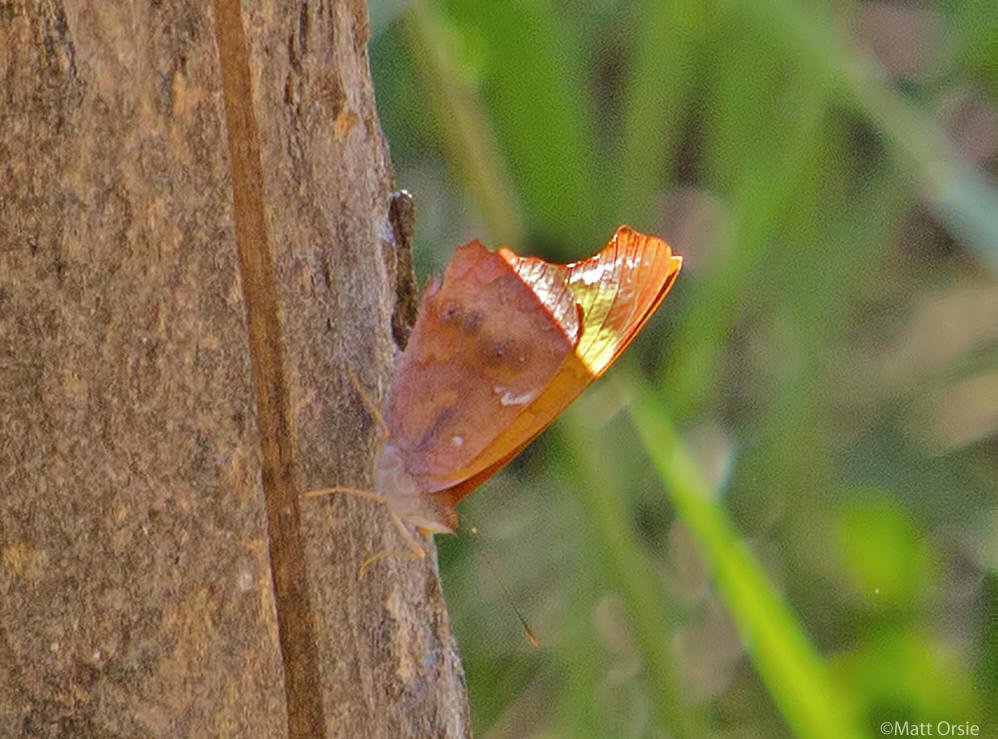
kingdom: Animalia
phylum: Arthropoda
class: Insecta
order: Lepidoptera
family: Nymphalidae
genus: Temenis
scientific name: Temenis laothoe
